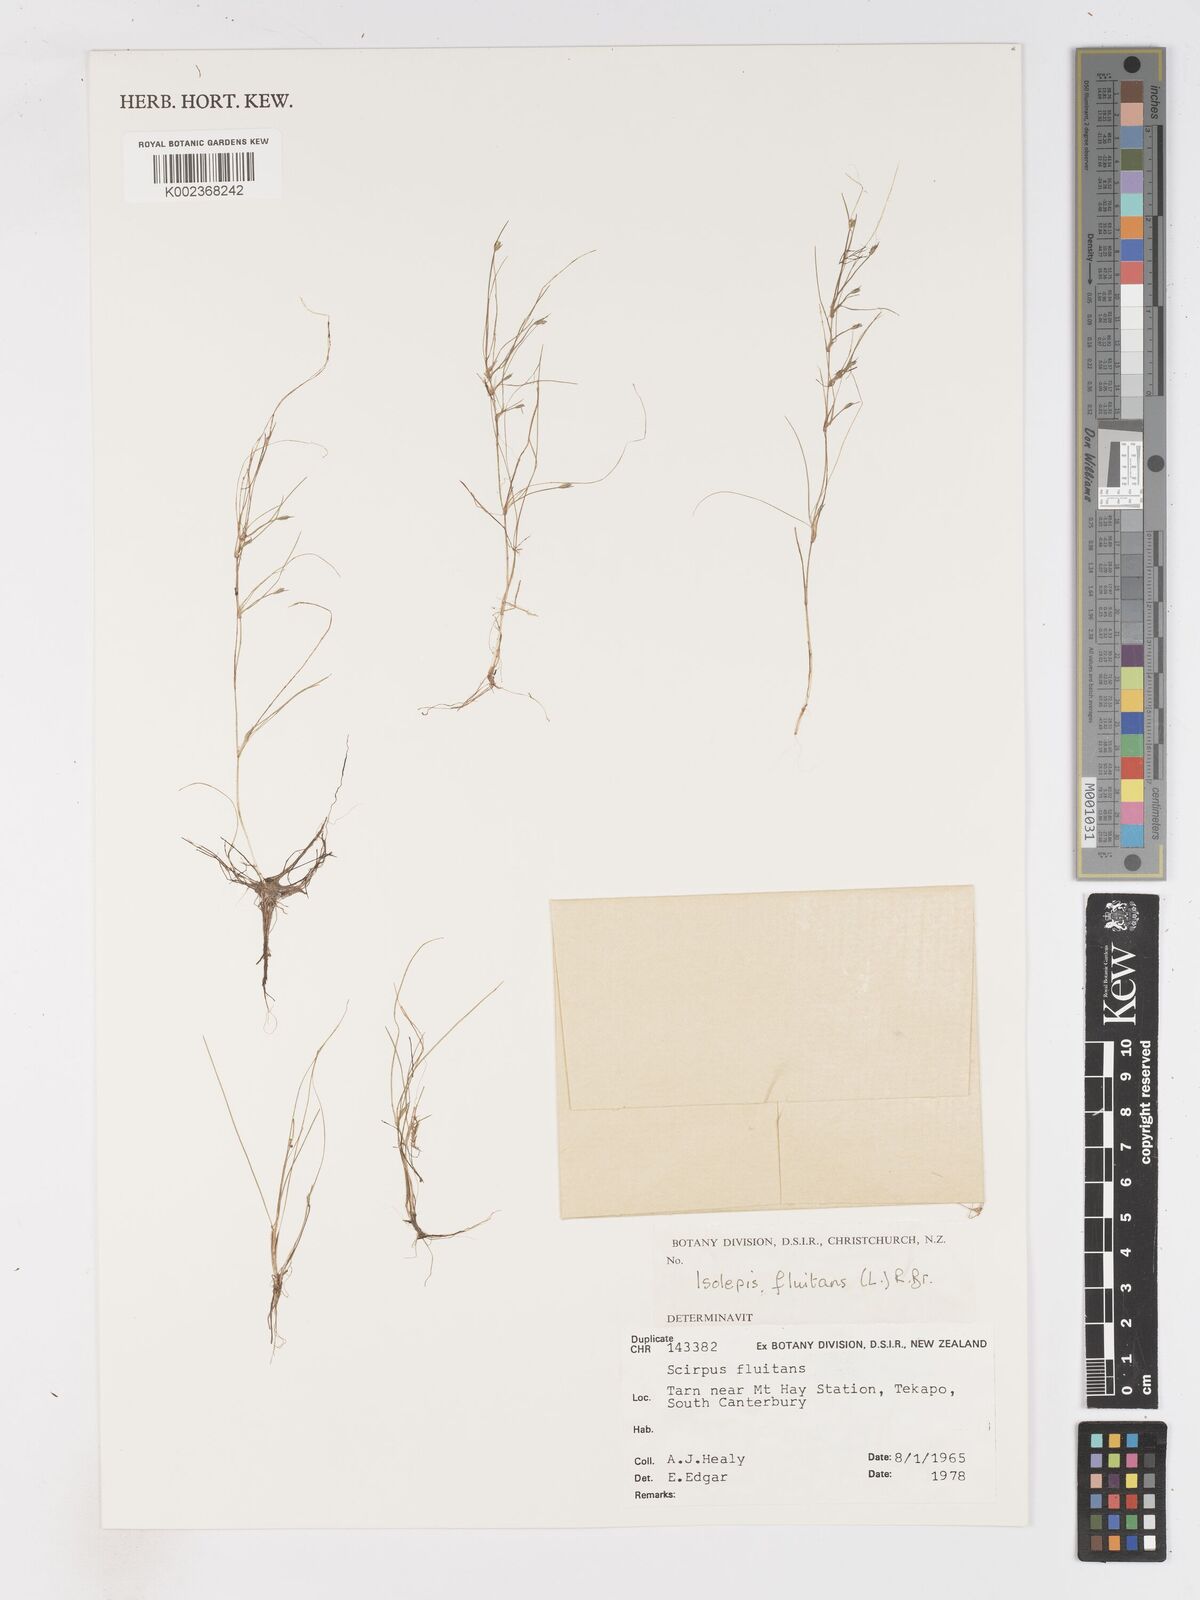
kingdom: Plantae
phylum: Tracheophyta
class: Liliopsida
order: Poales
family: Cyperaceae
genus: Isolepis
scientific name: Isolepis fluitans
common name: Floating club-rush
